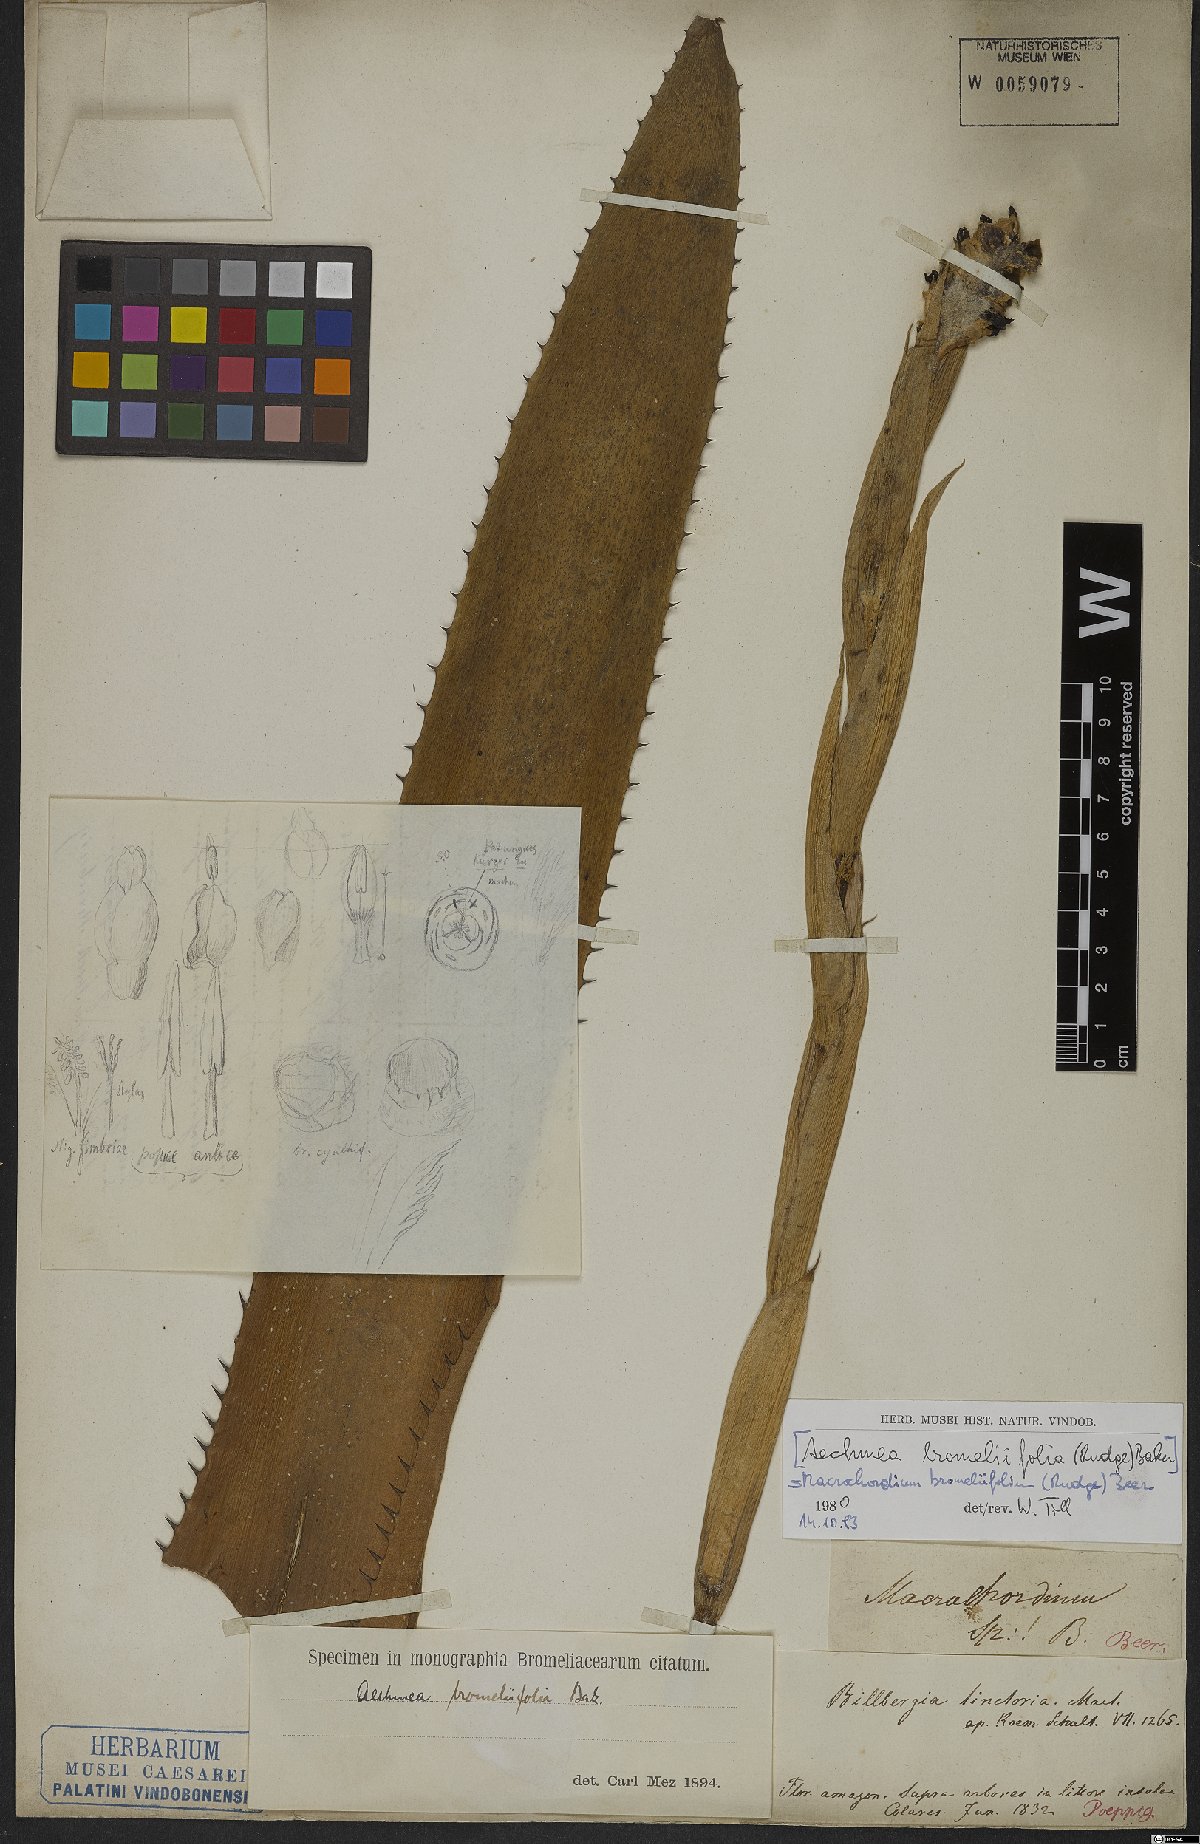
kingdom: Plantae
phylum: Tracheophyta
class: Liliopsida
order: Poales
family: Bromeliaceae
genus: Aechmea
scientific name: Aechmea bromeliifolia
